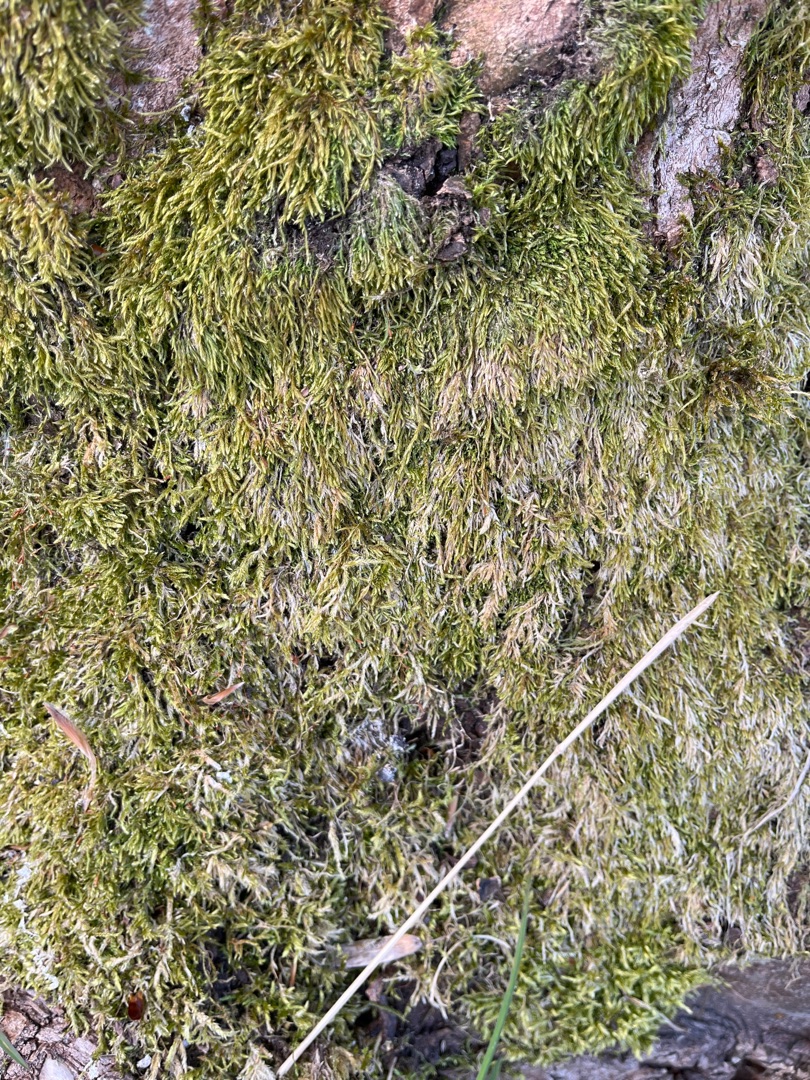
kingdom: Plantae
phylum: Bryophyta
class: Bryopsida
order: Hypnales
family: Hypnaceae
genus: Hypnum
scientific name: Hypnum
